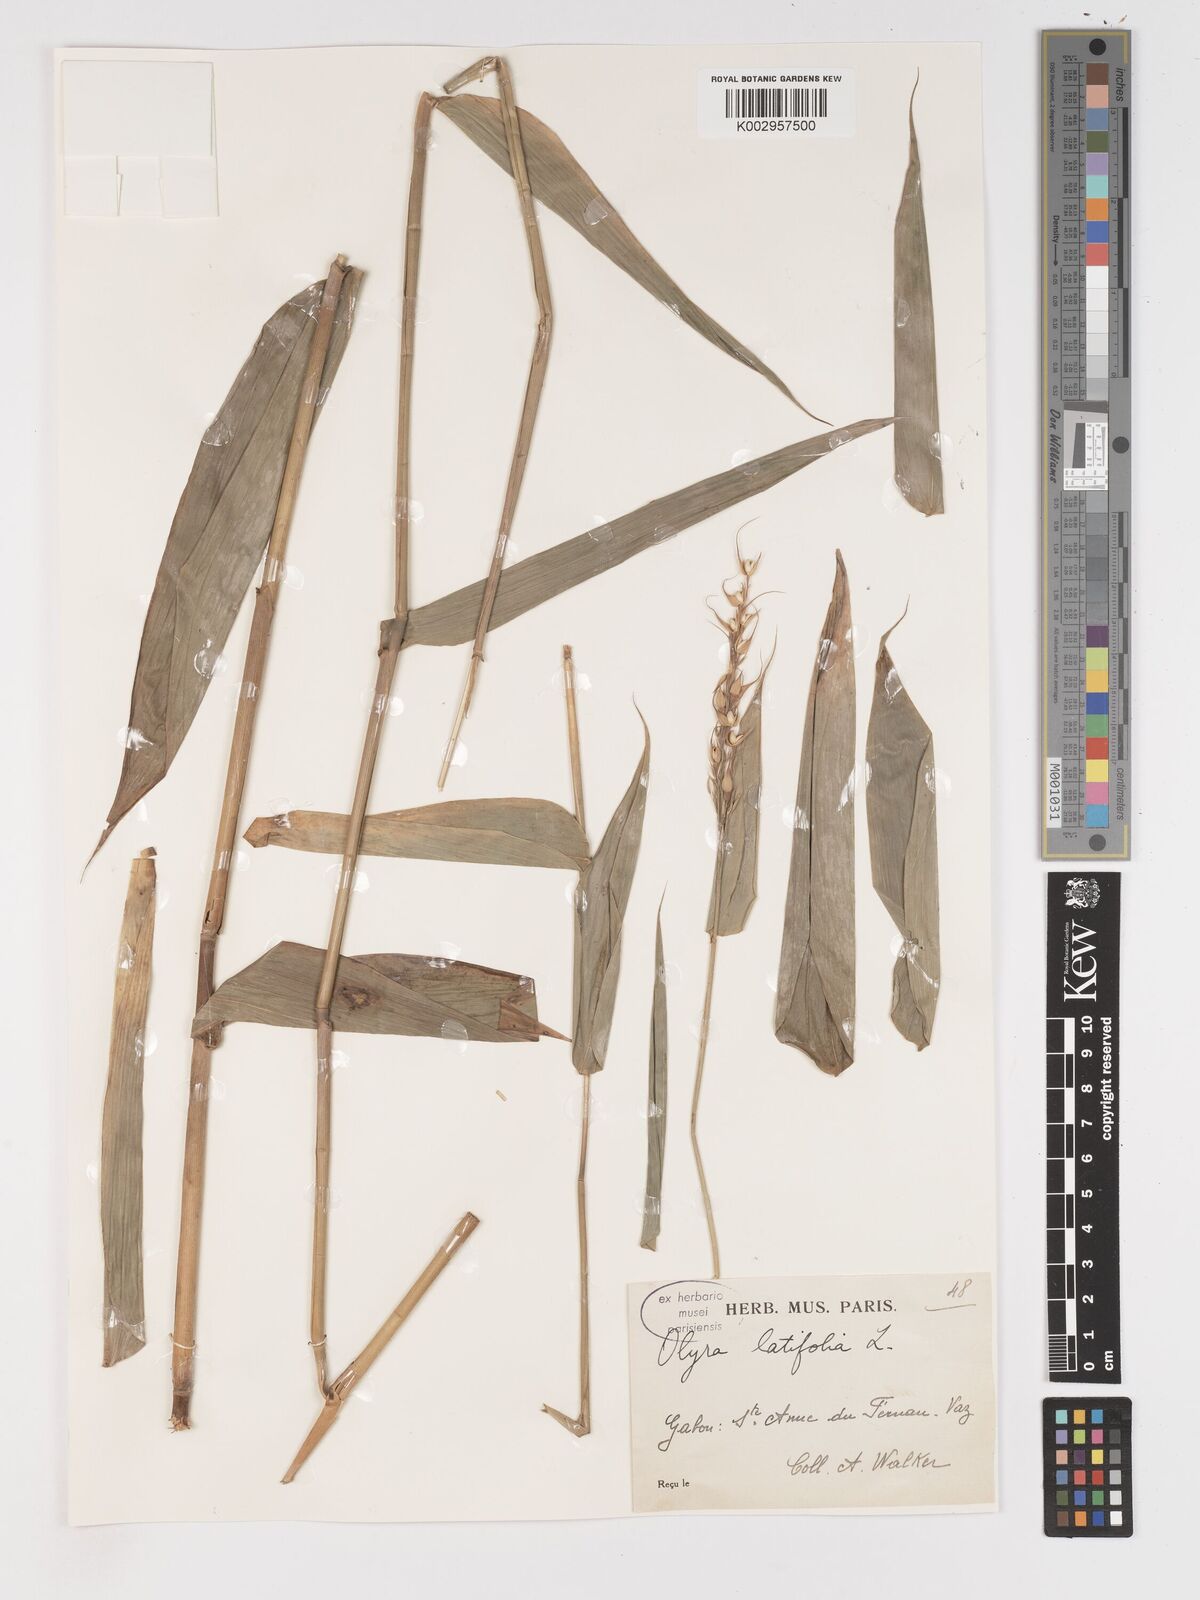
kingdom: Plantae
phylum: Tracheophyta
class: Liliopsida
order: Poales
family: Poaceae
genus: Olyra
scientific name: Olyra latifolia
